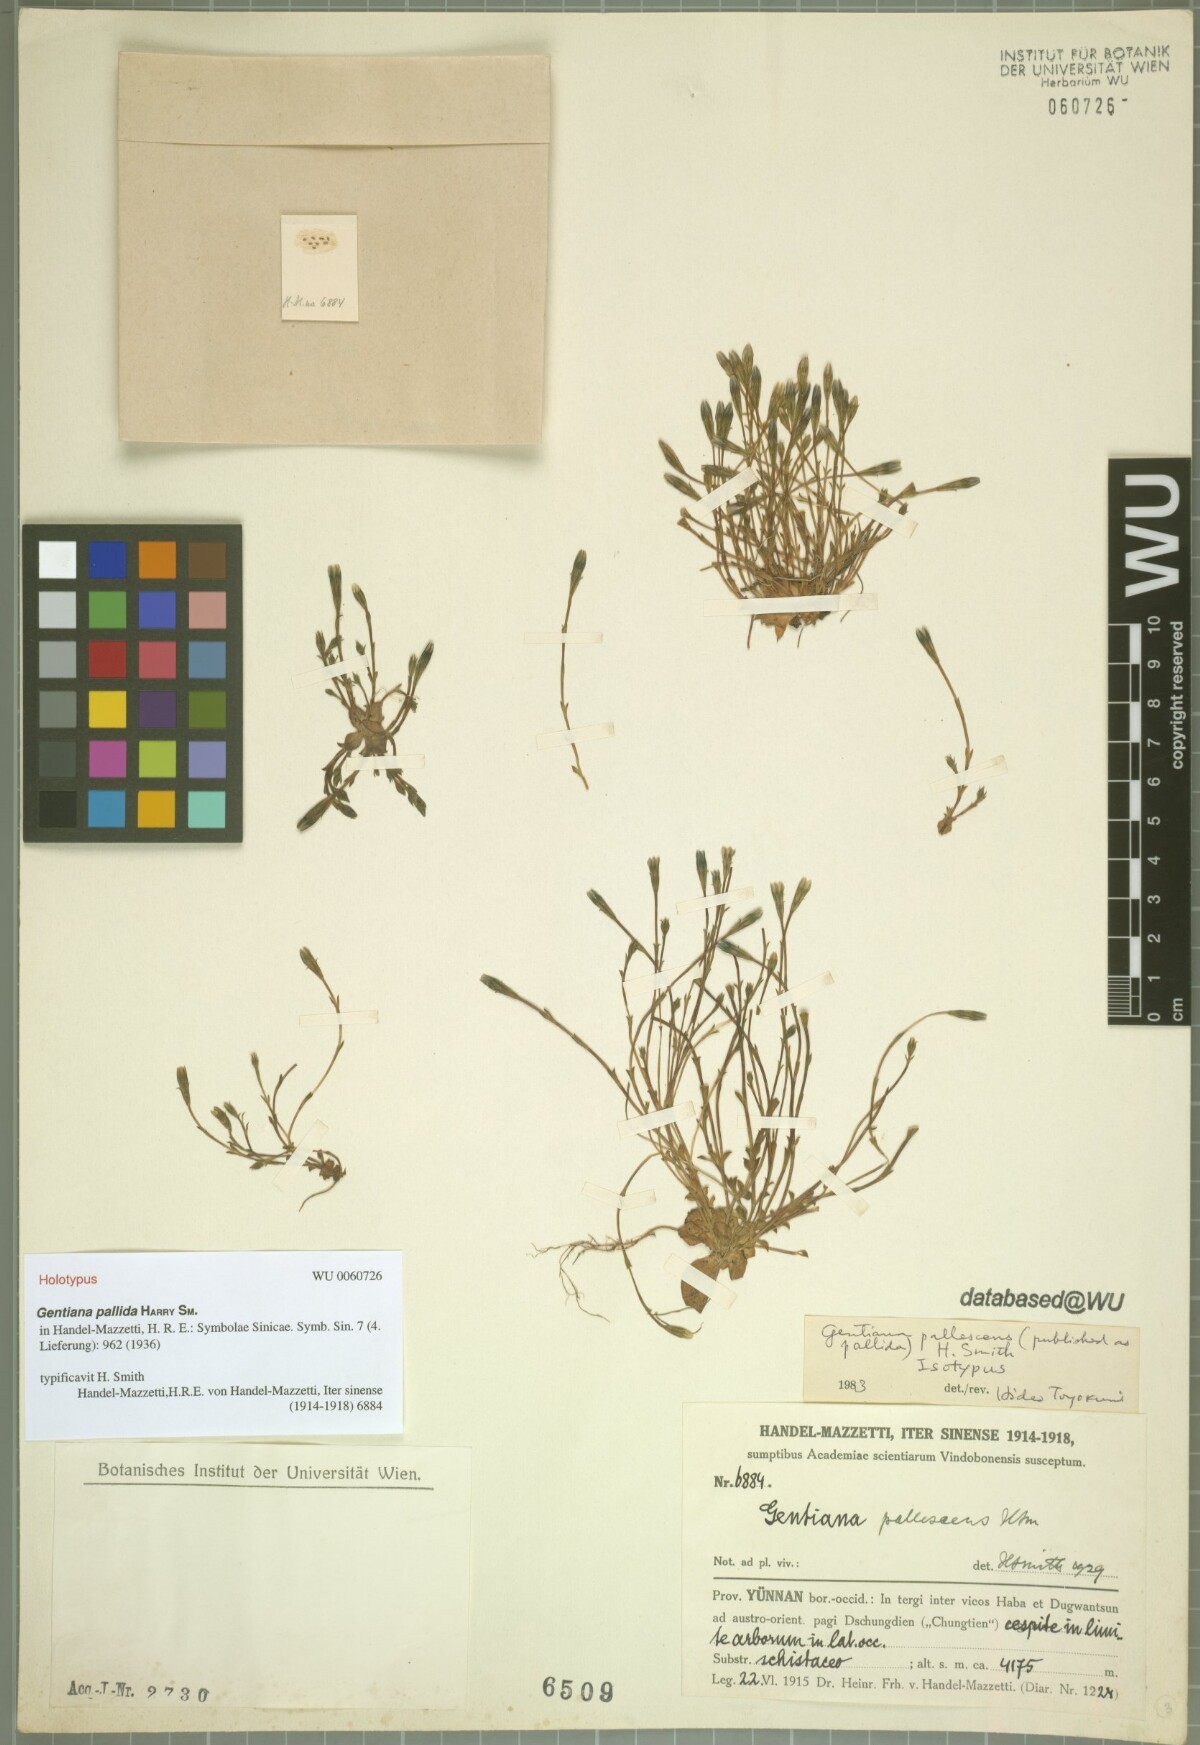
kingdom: Plantae
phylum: Tracheophyta
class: Magnoliopsida
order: Gentianales
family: Gentianaceae
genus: Gentiana
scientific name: Gentiana forrestii
